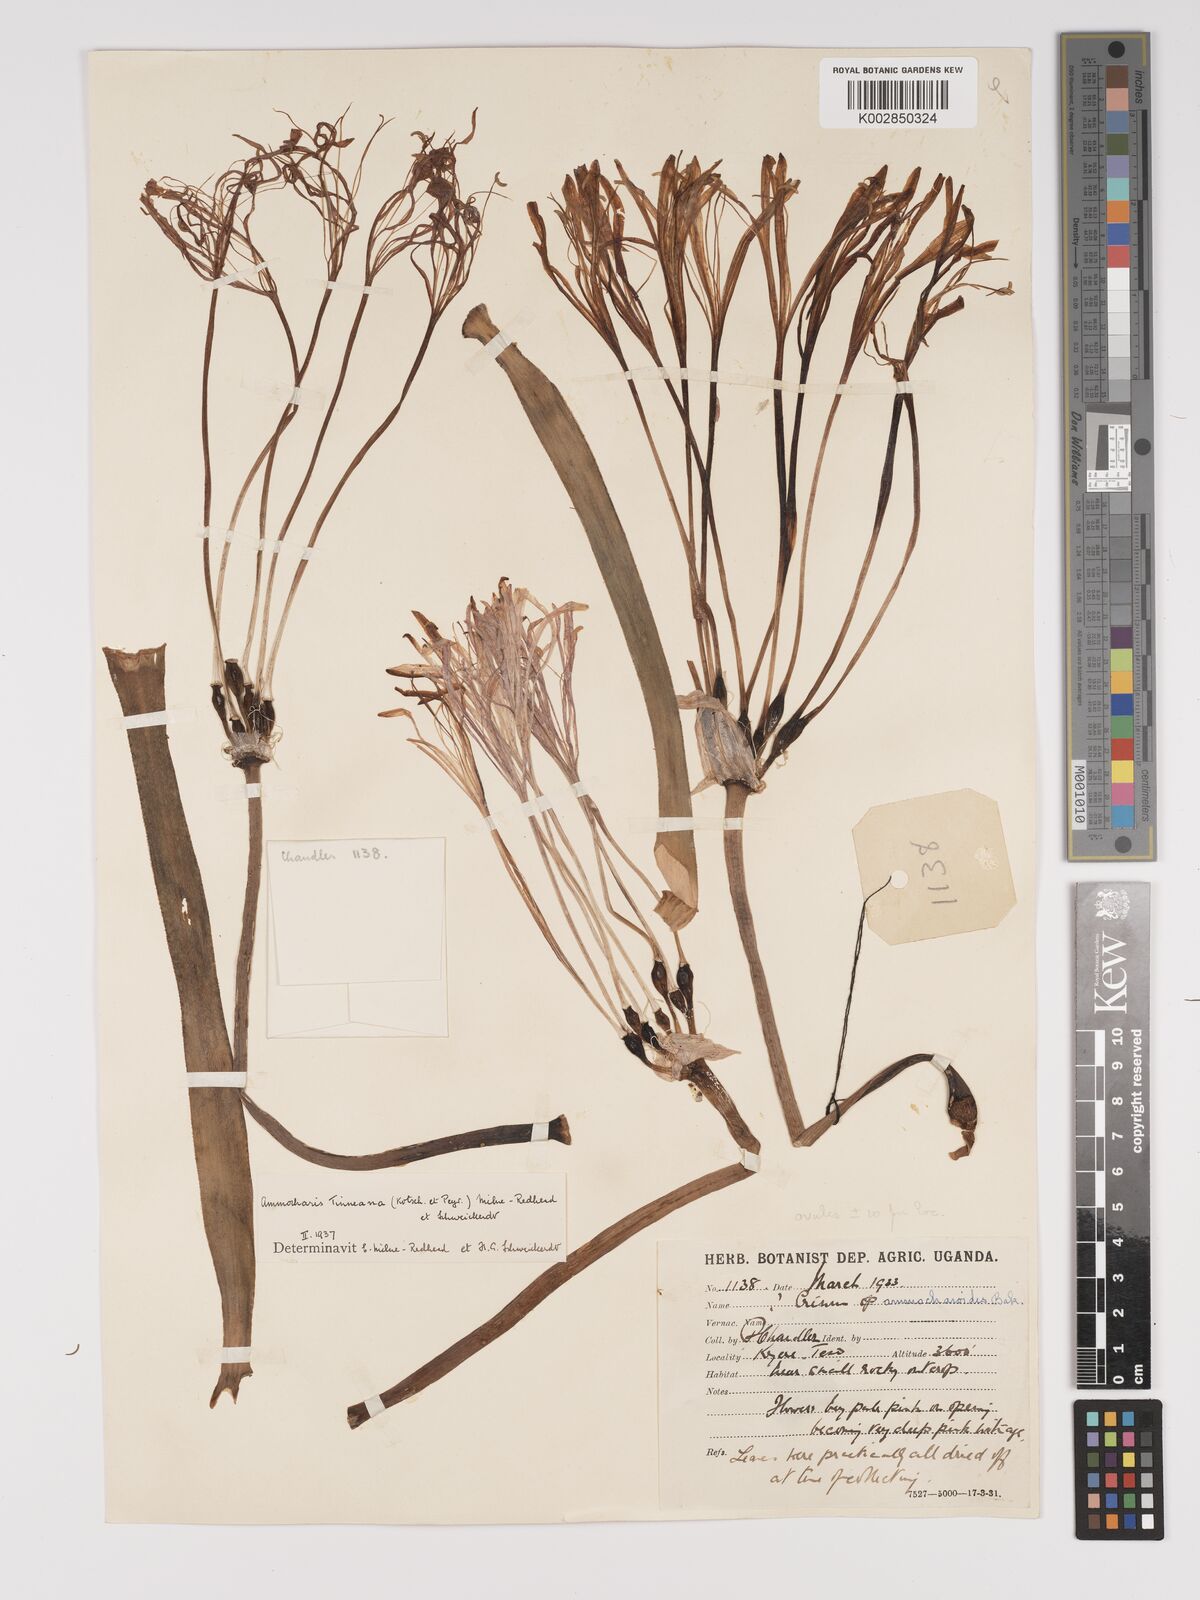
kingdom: Plantae
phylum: Tracheophyta
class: Liliopsida
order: Asparagales
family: Amaryllidaceae
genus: Ammocharis
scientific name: Ammocharis tinneana
